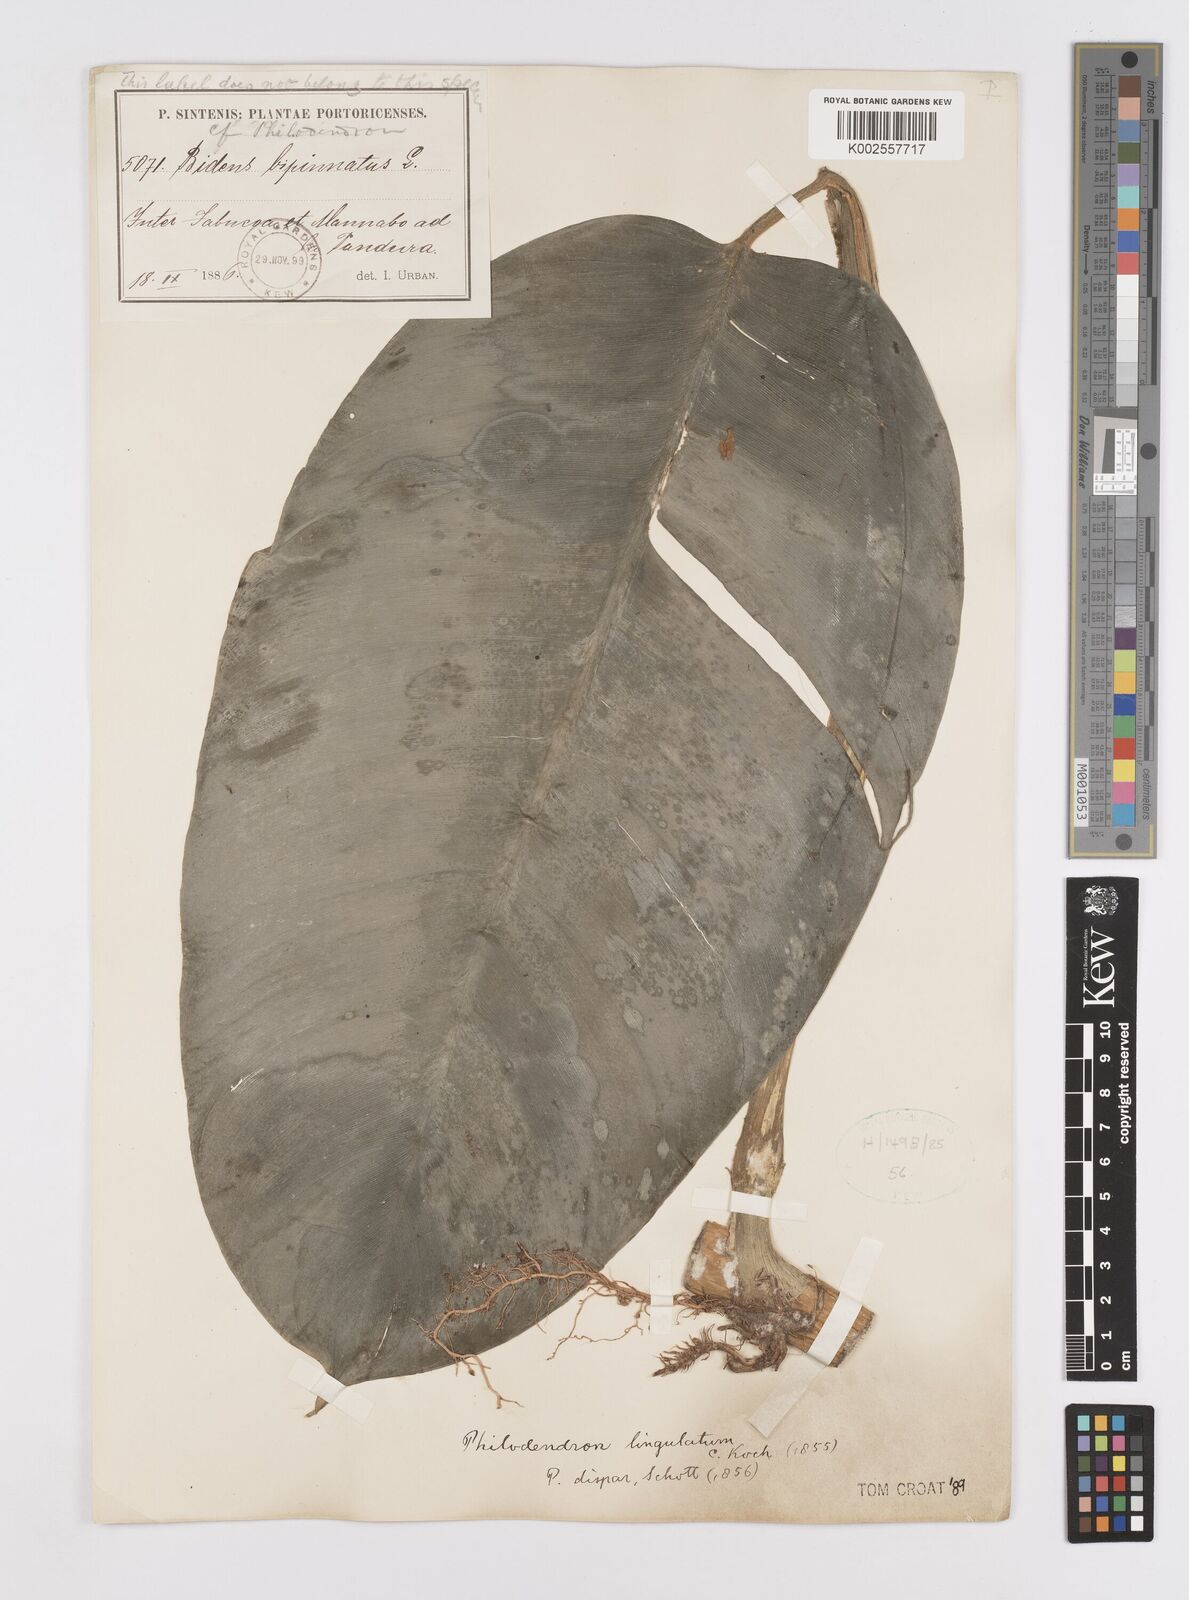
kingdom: Plantae
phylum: Tracheophyta
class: Liliopsida
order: Alismatales
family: Araceae
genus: Philodendron
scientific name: Philodendron lingulatum
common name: Treelover
